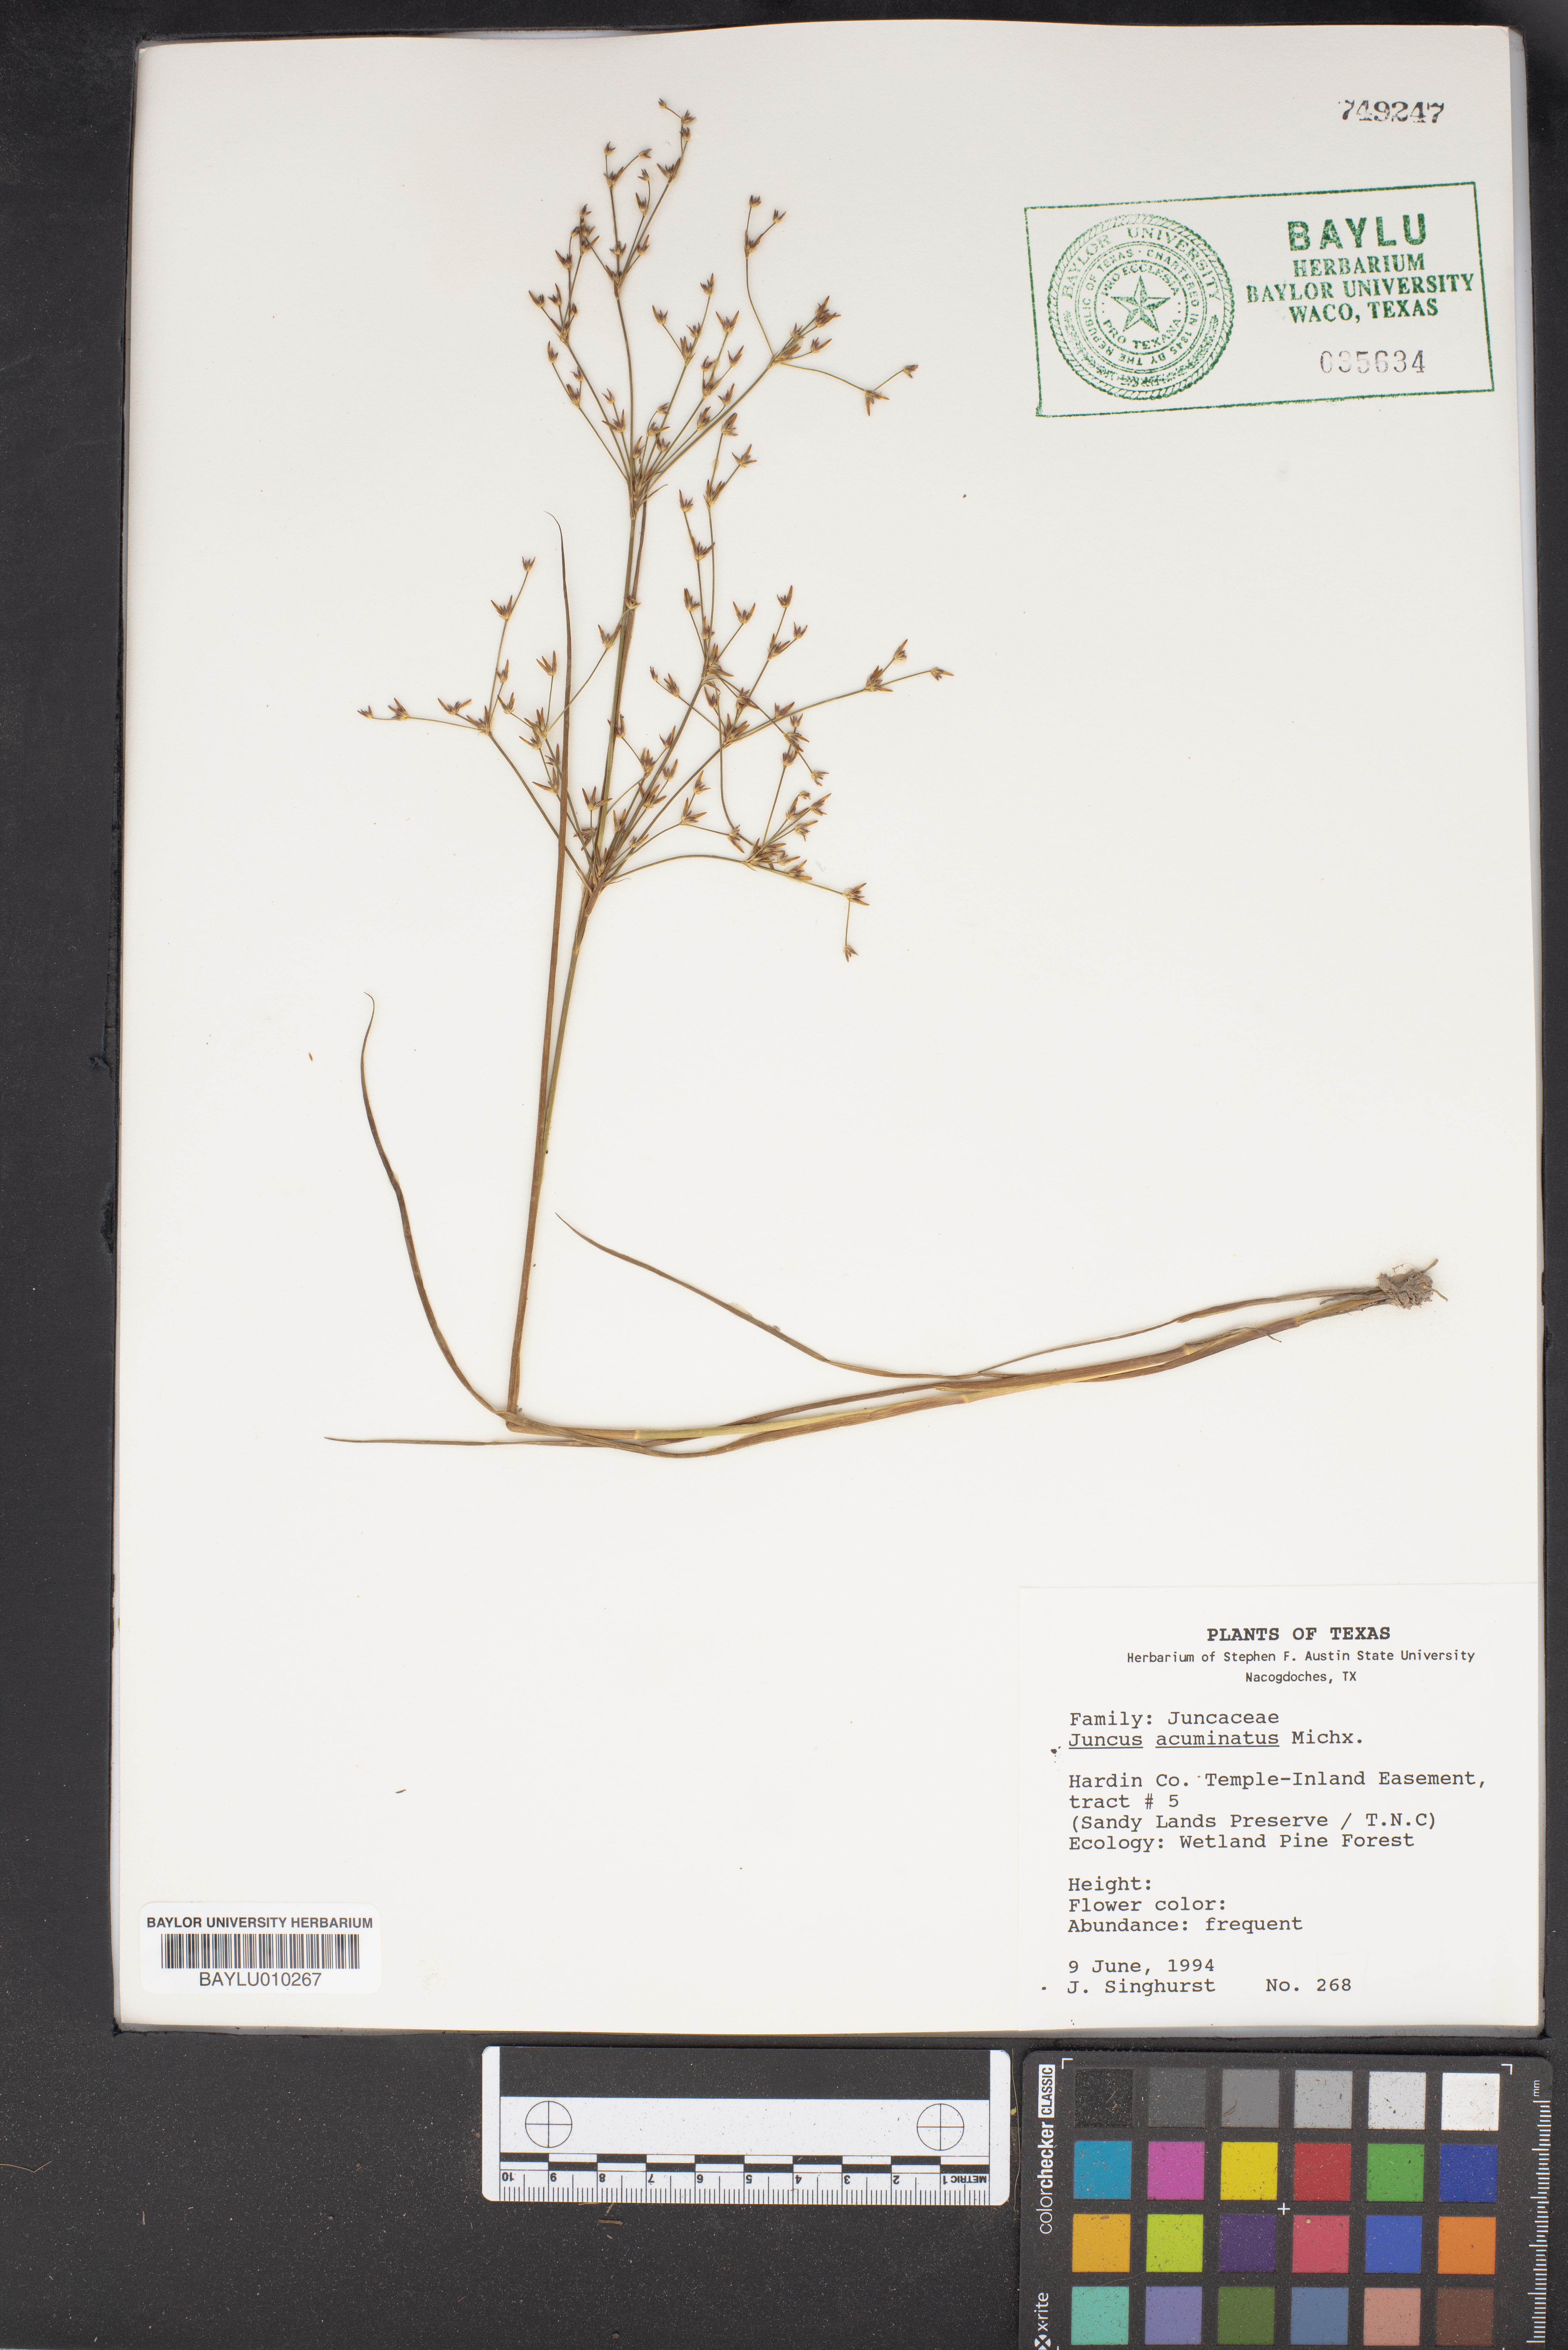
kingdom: Plantae
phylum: Tracheophyta
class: Liliopsida
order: Poales
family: Juncaceae
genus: Juncus
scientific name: Juncus acuminatus
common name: Knotty-leaved rush
